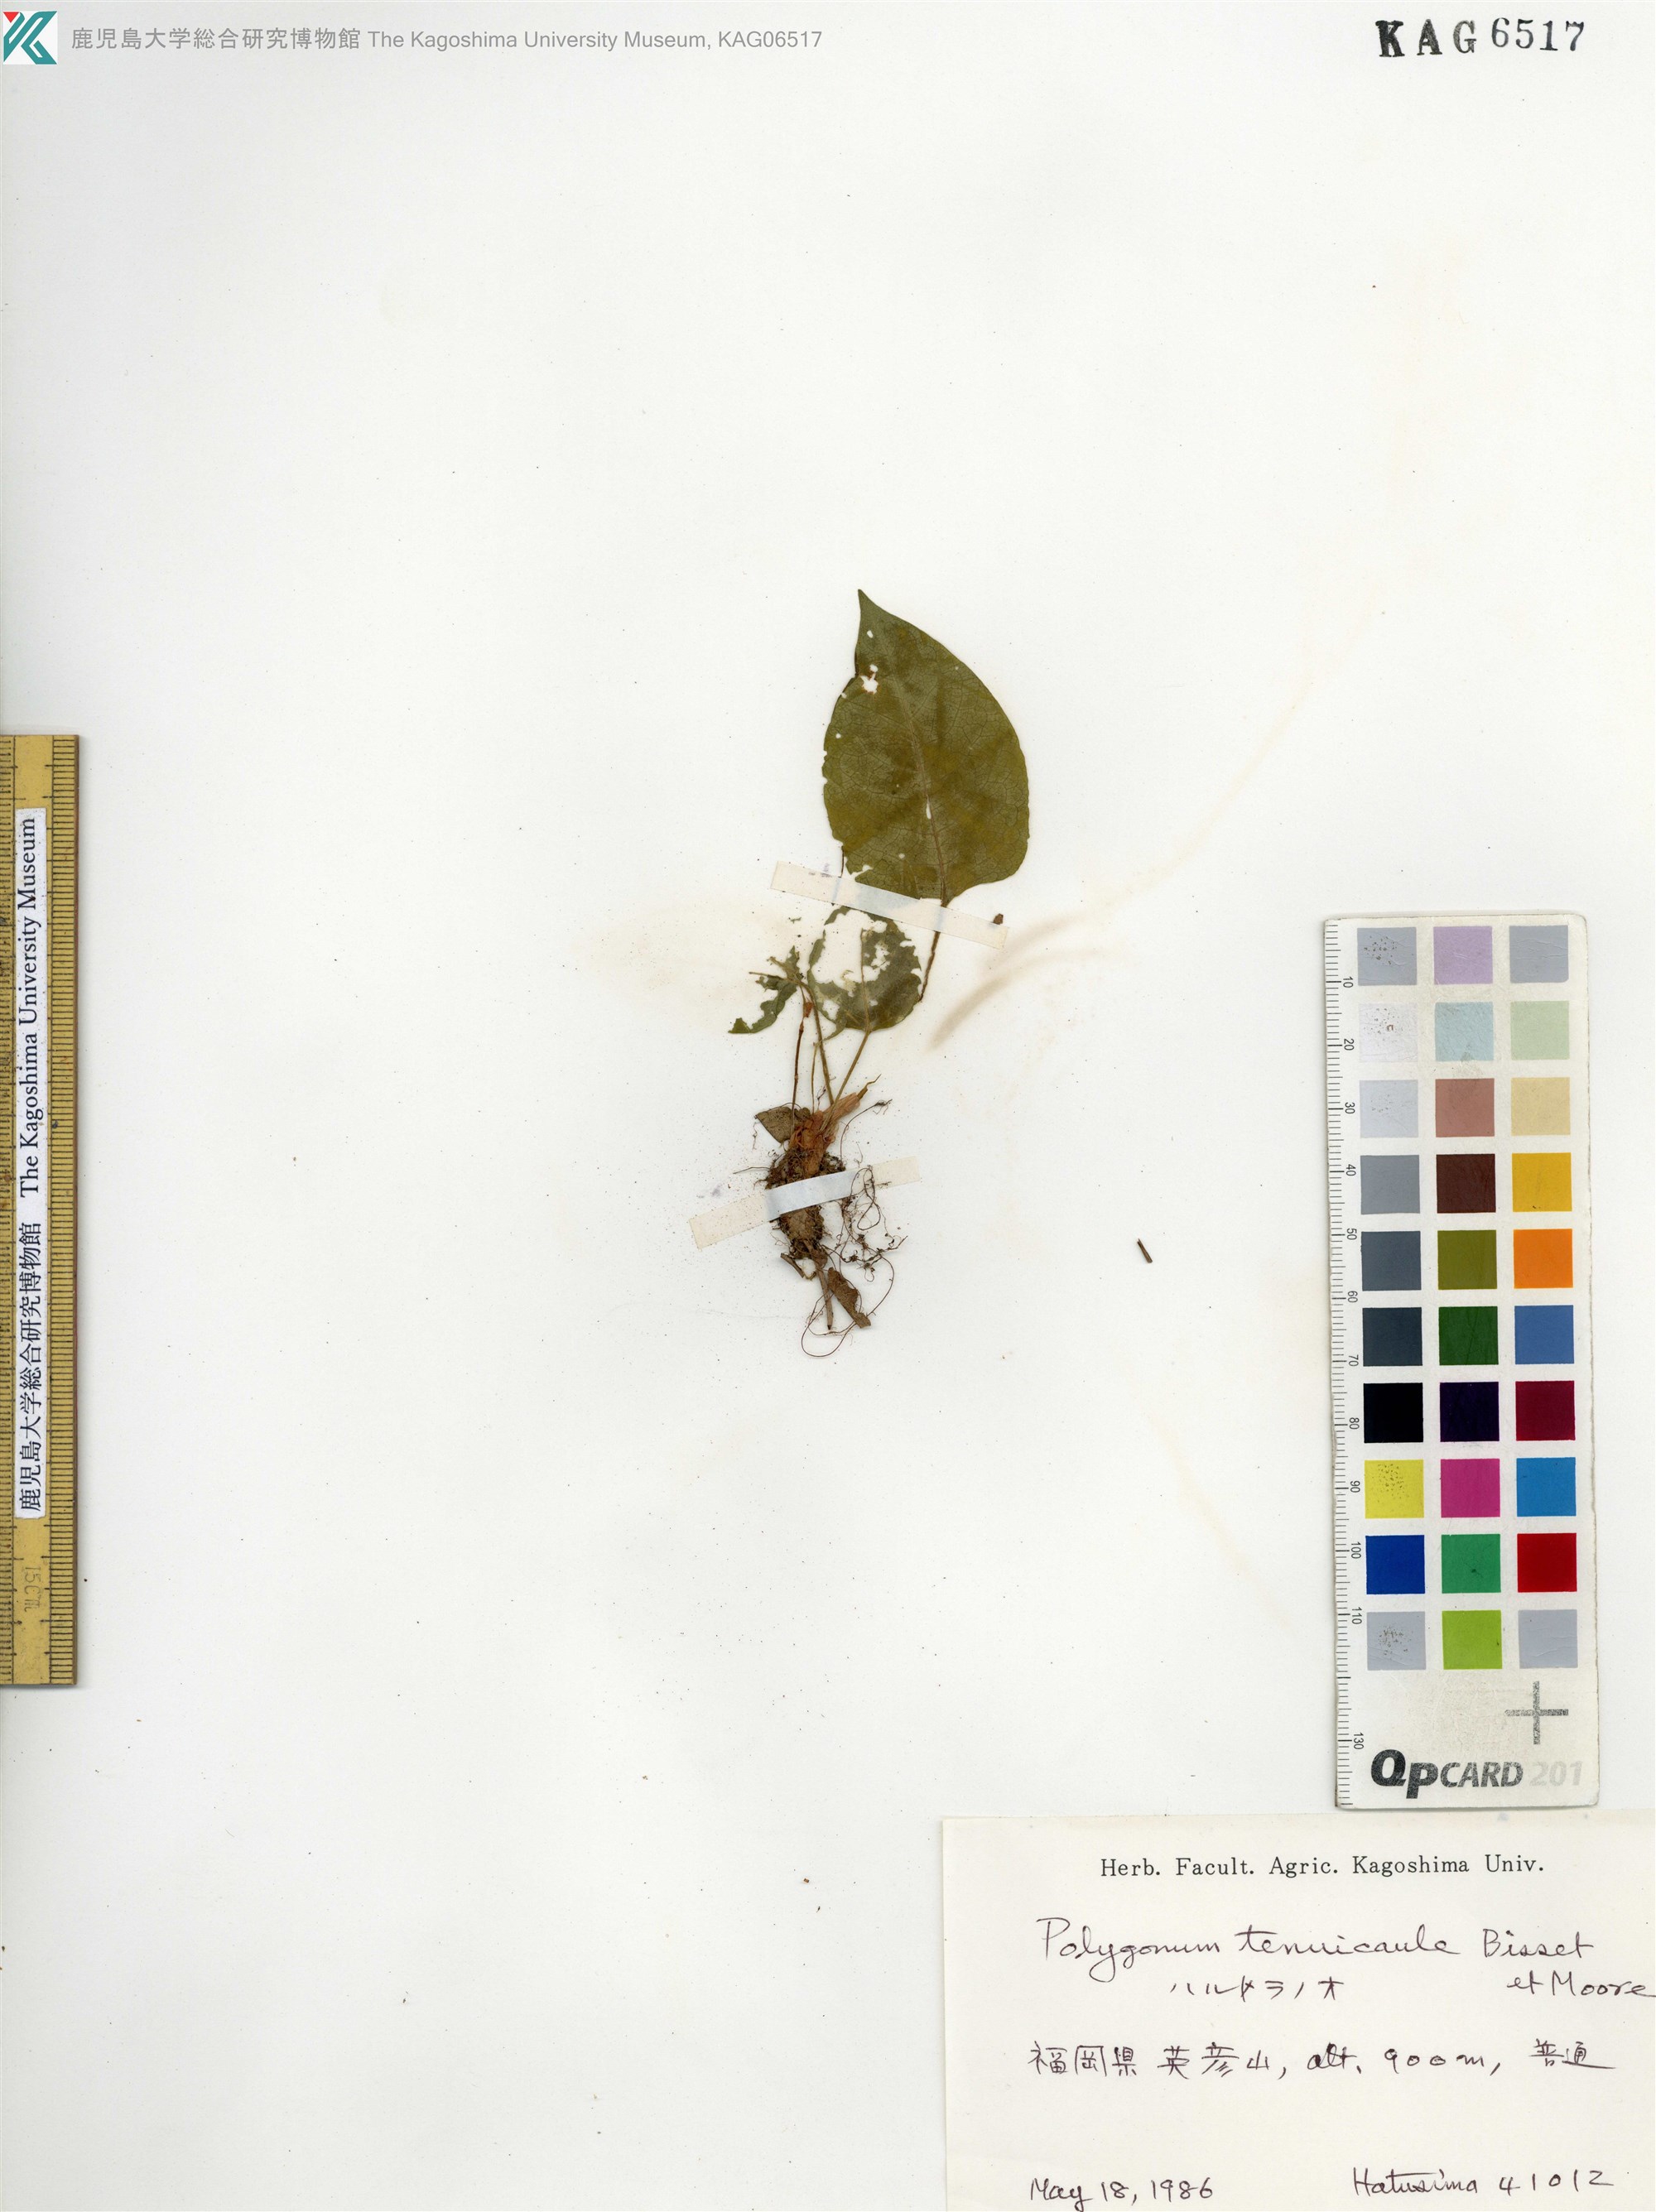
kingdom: Plantae
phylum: Tracheophyta
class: Magnoliopsida
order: Caryophyllales
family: Polygonaceae
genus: Bistorta
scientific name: Bistorta tenuicaulis
